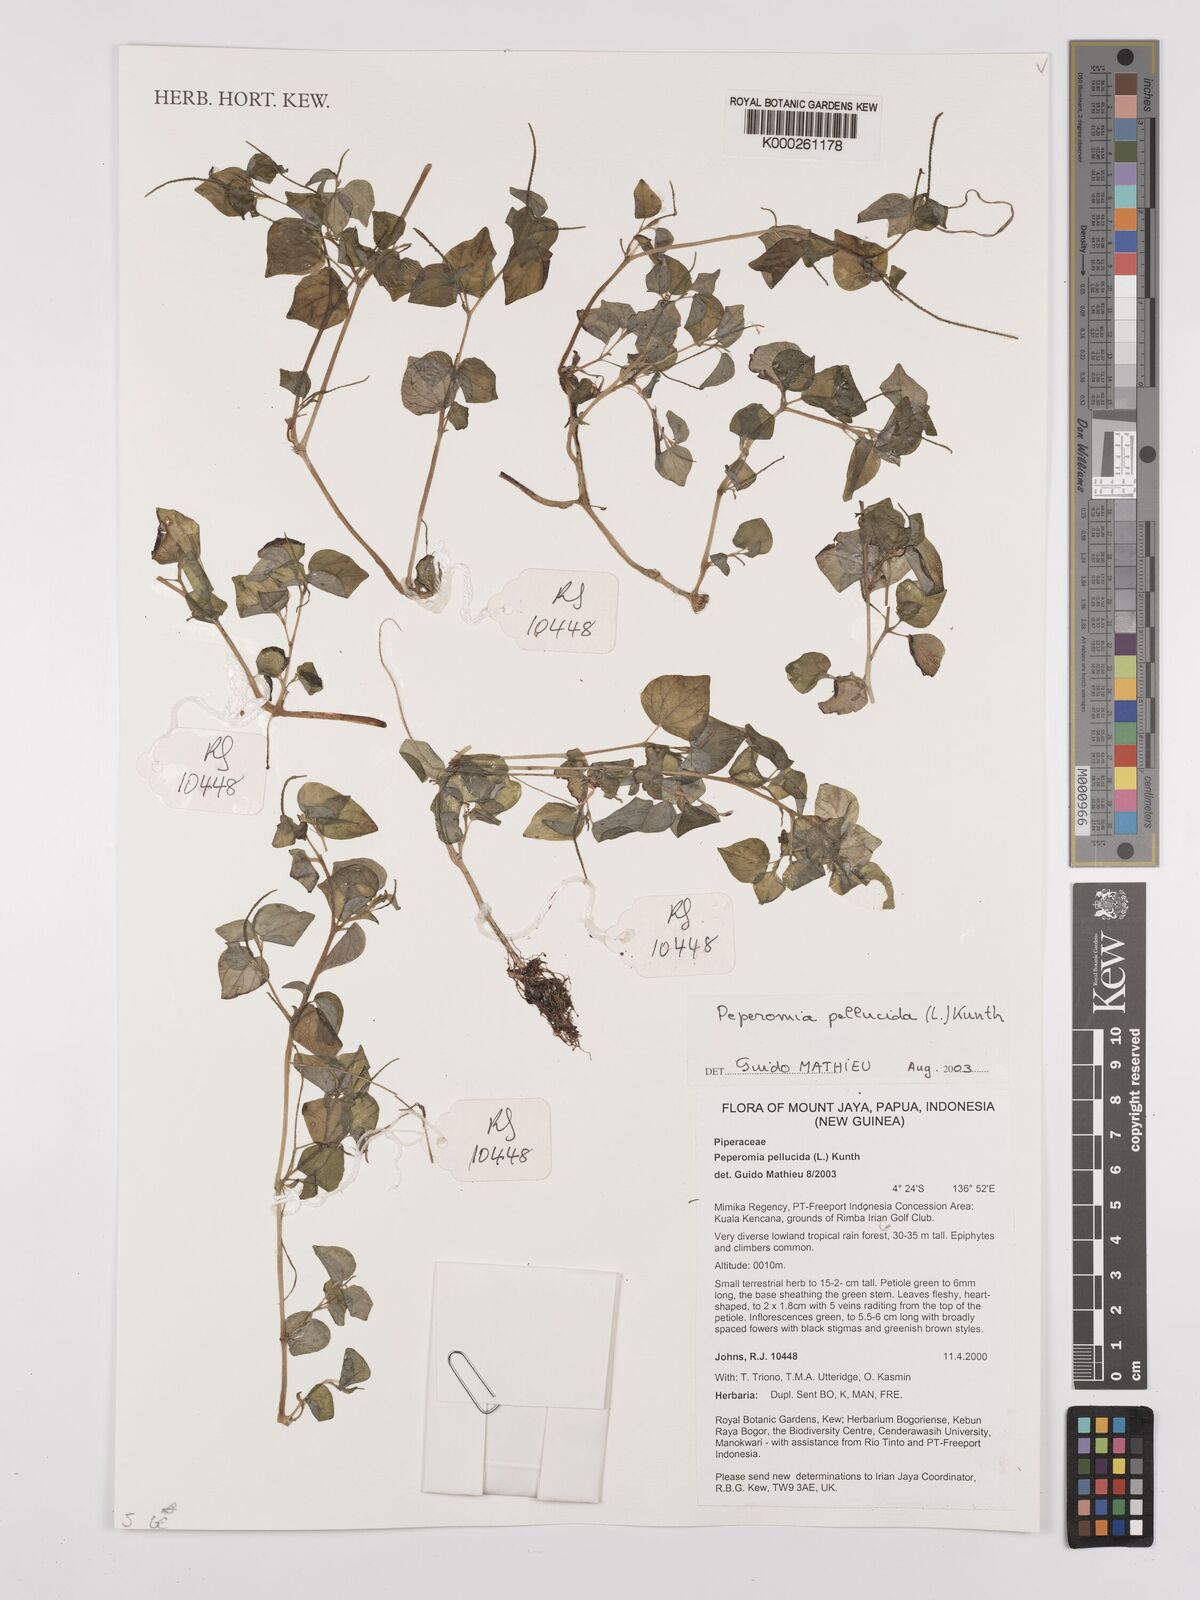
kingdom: Plantae
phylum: Tracheophyta
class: Magnoliopsida
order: Piperales
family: Piperaceae
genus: Peperomia
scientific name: Peperomia pellucida
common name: Man to man
